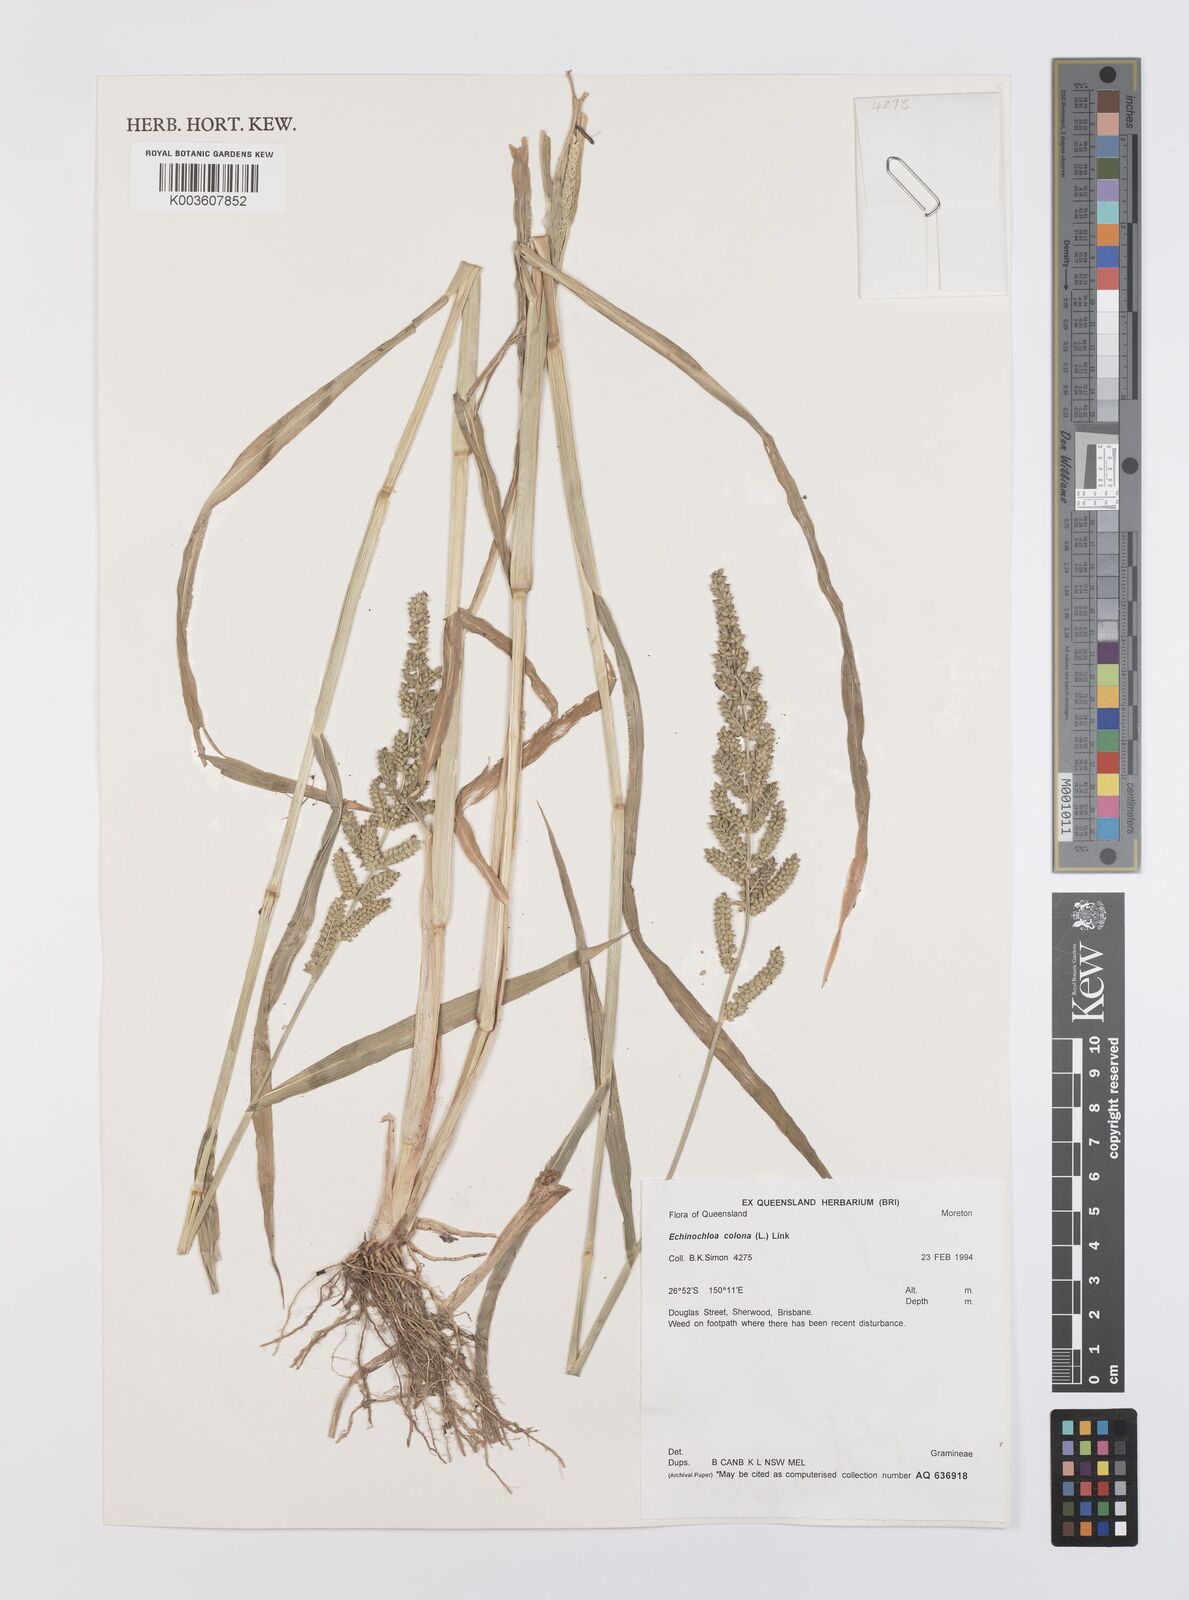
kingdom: Plantae
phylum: Tracheophyta
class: Liliopsida
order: Poales
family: Poaceae
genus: Echinochloa
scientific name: Echinochloa colonum
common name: Jungle rice
